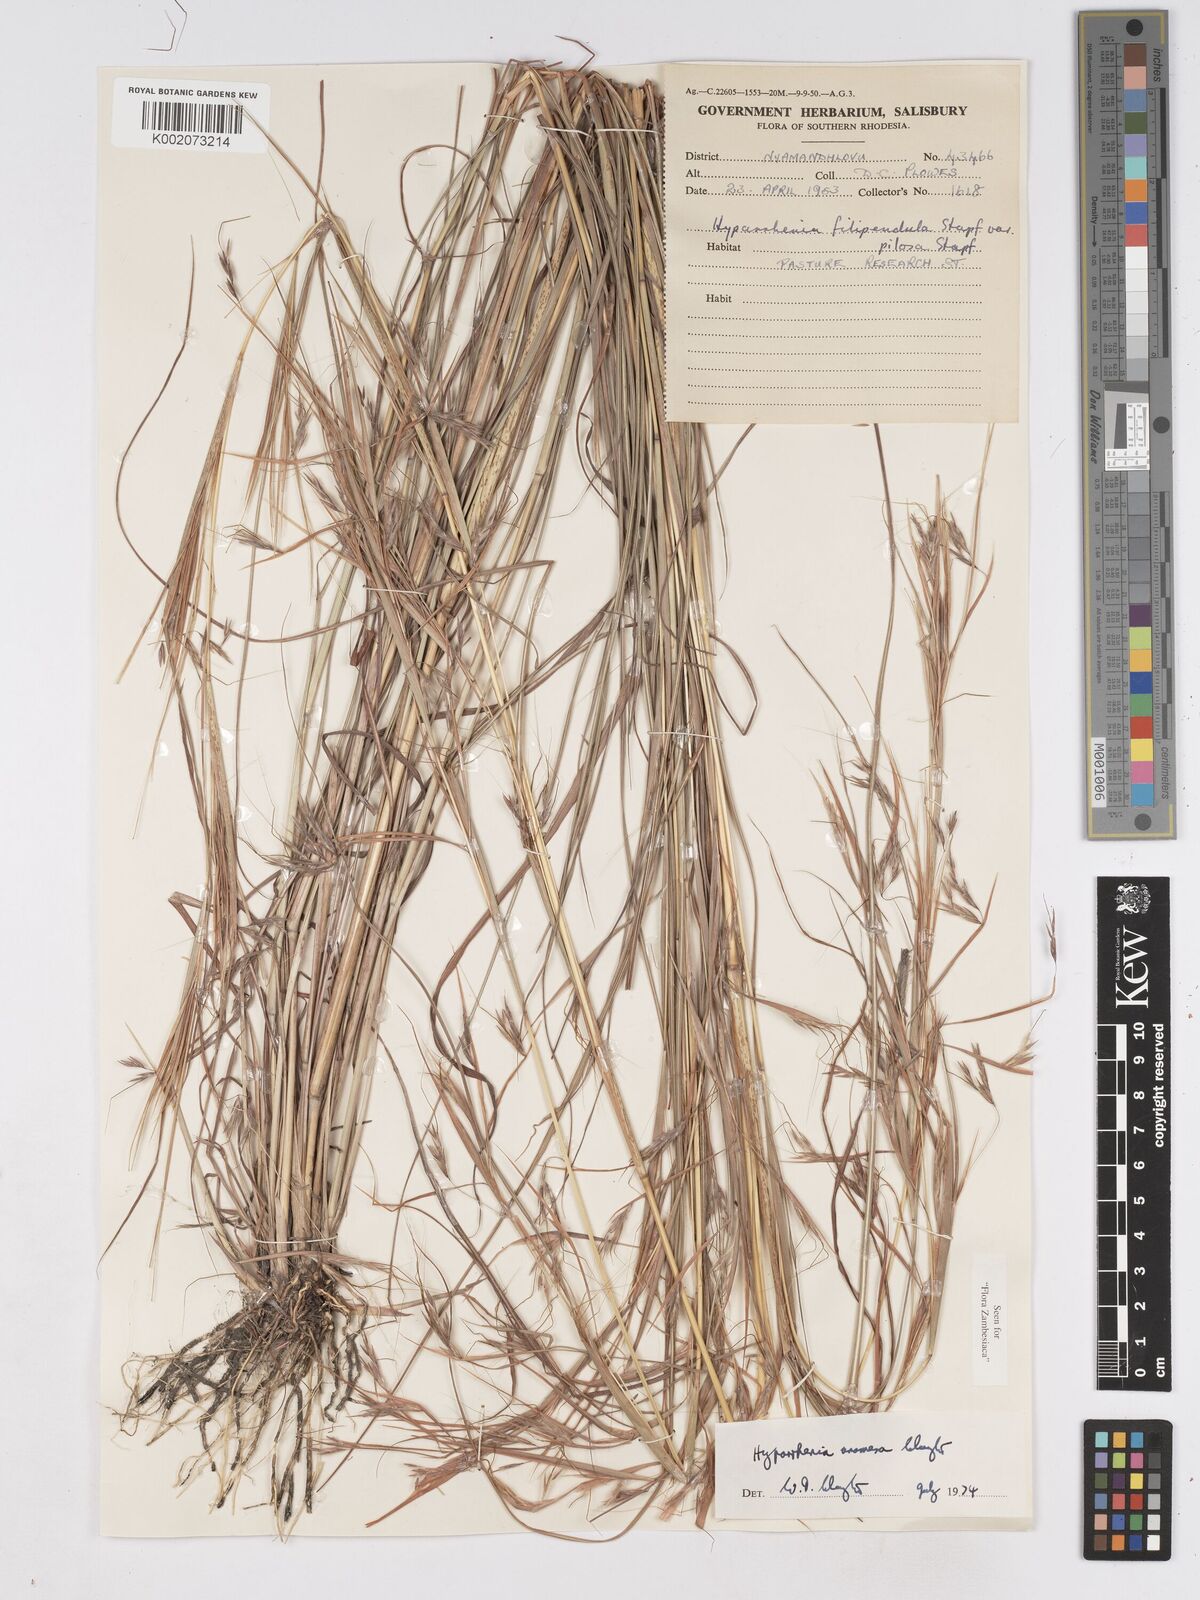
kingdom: Plantae
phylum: Tracheophyta
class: Liliopsida
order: Poales
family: Poaceae
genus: Hyparrhenia
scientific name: Hyparrhenia anamesa
